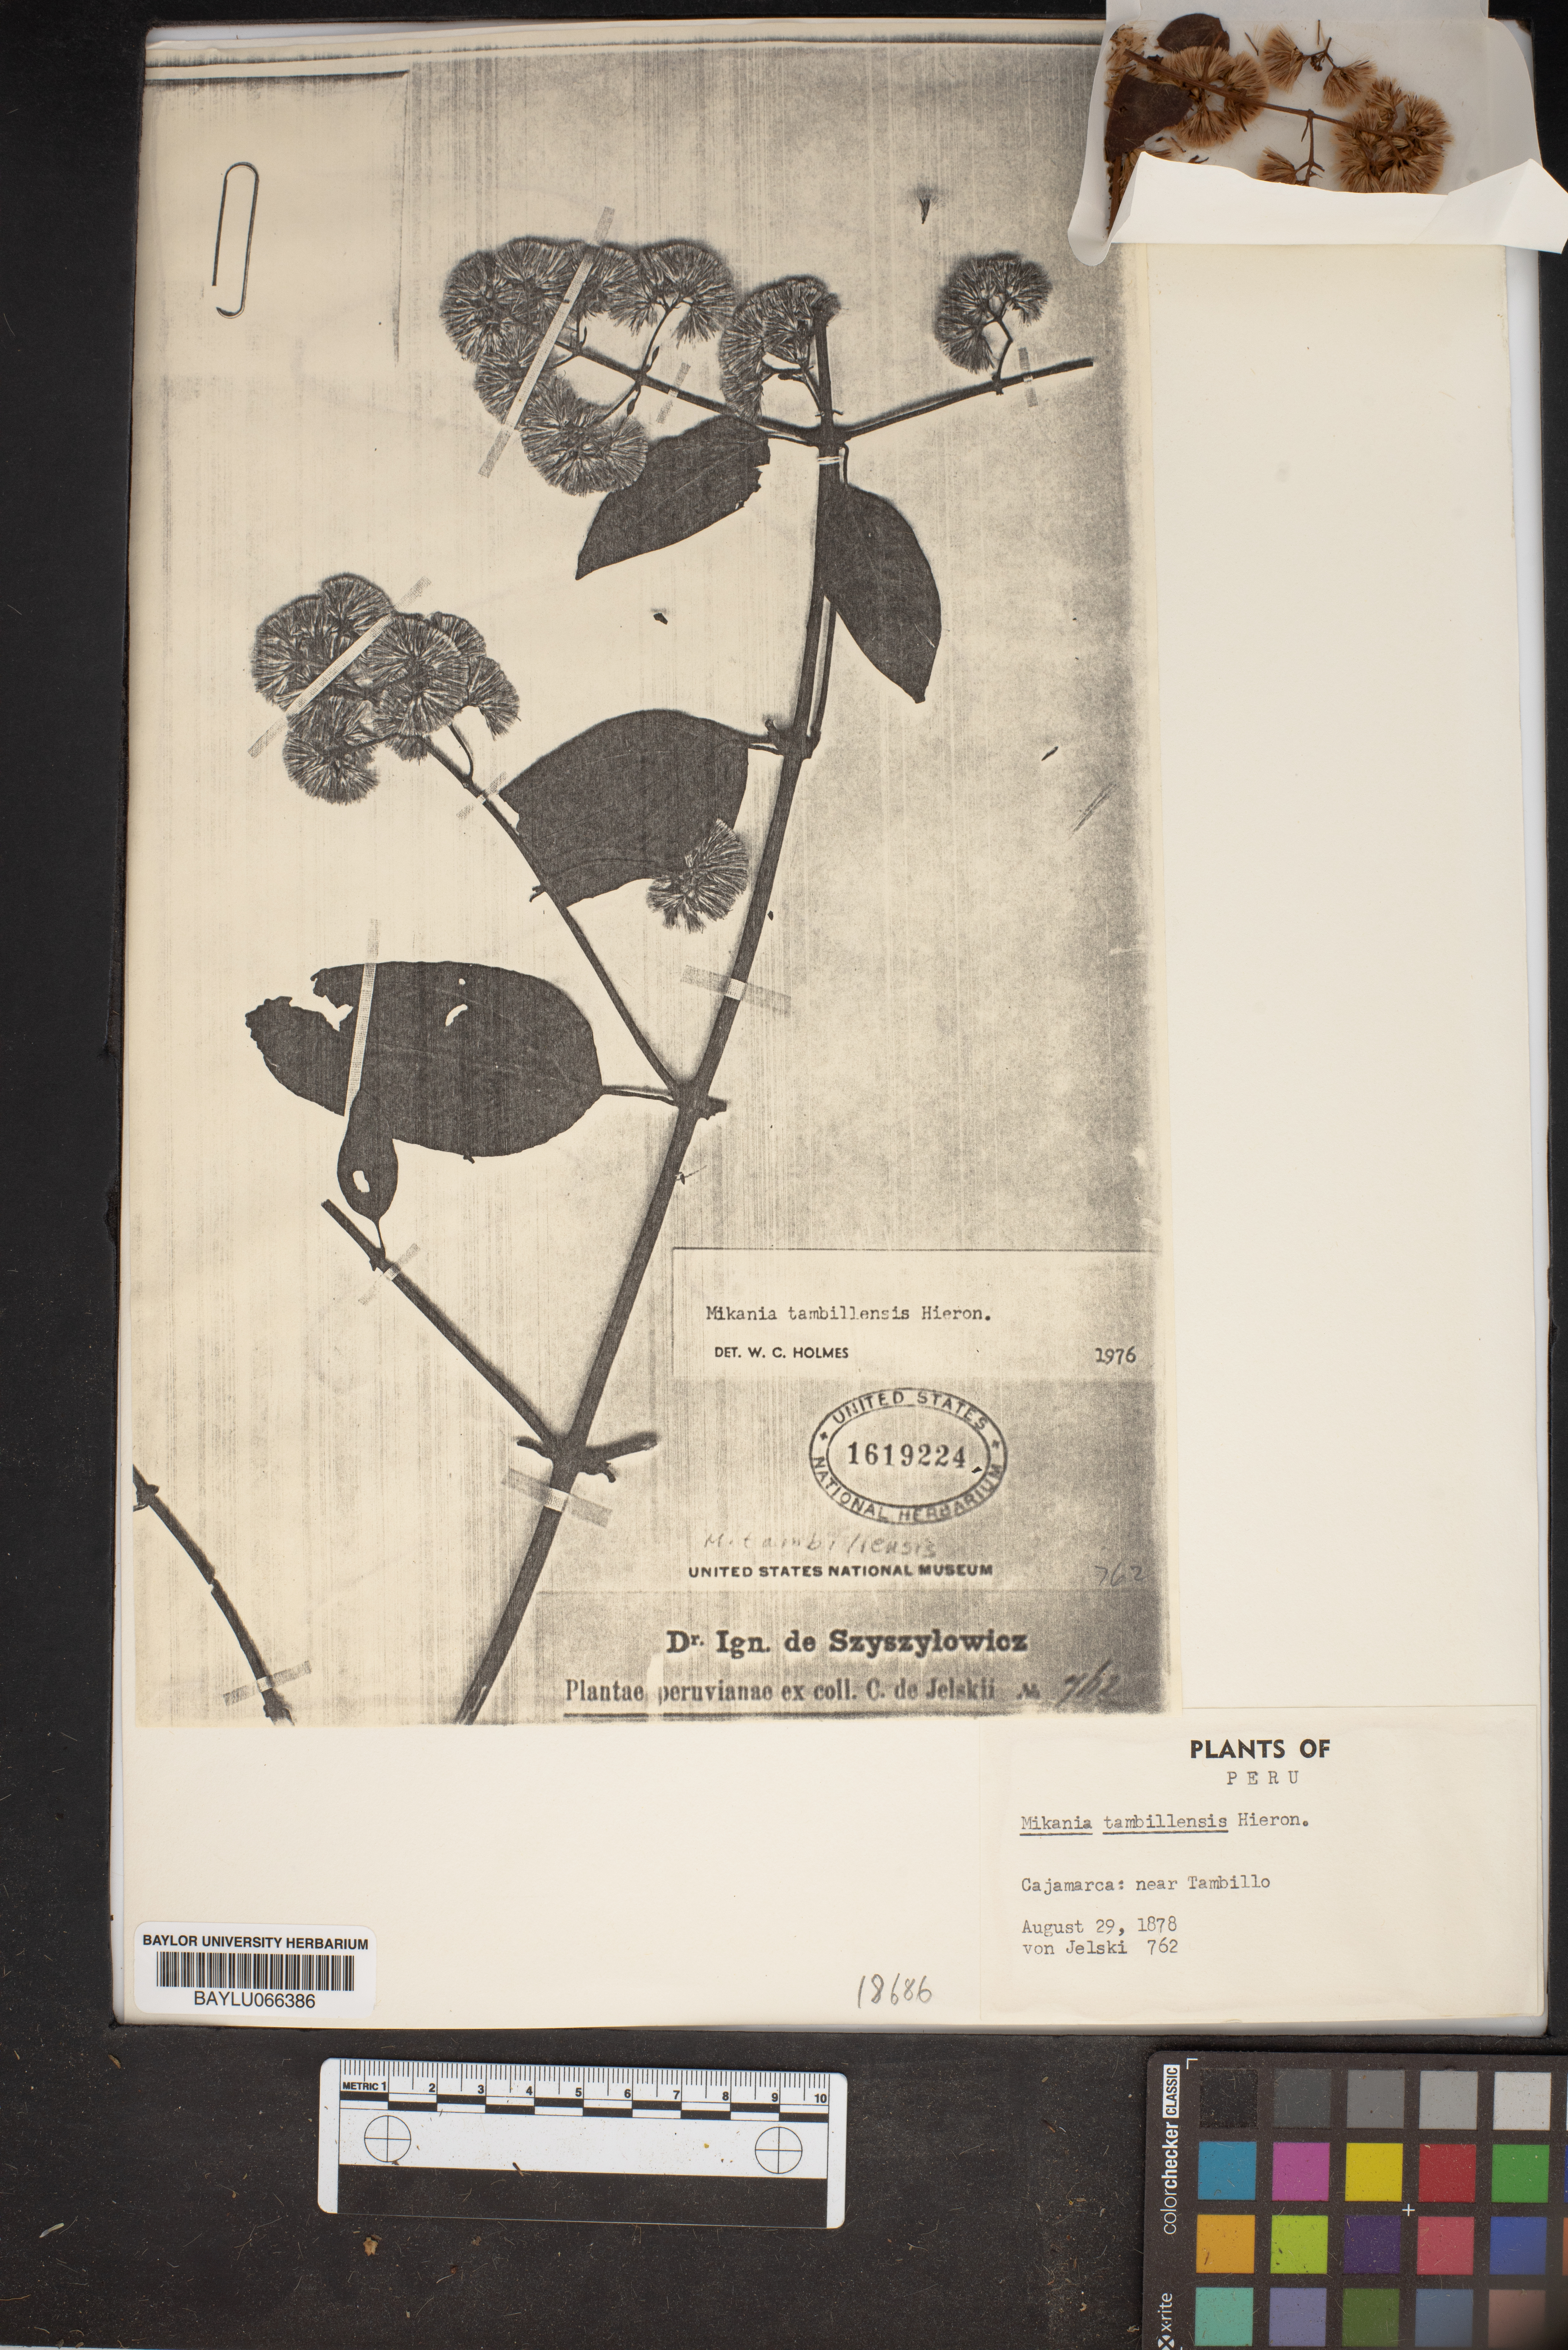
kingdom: Plantae
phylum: Tracheophyta
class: Magnoliopsida
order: Asterales
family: Asteraceae
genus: Mikania
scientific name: Mikania tambillensis
